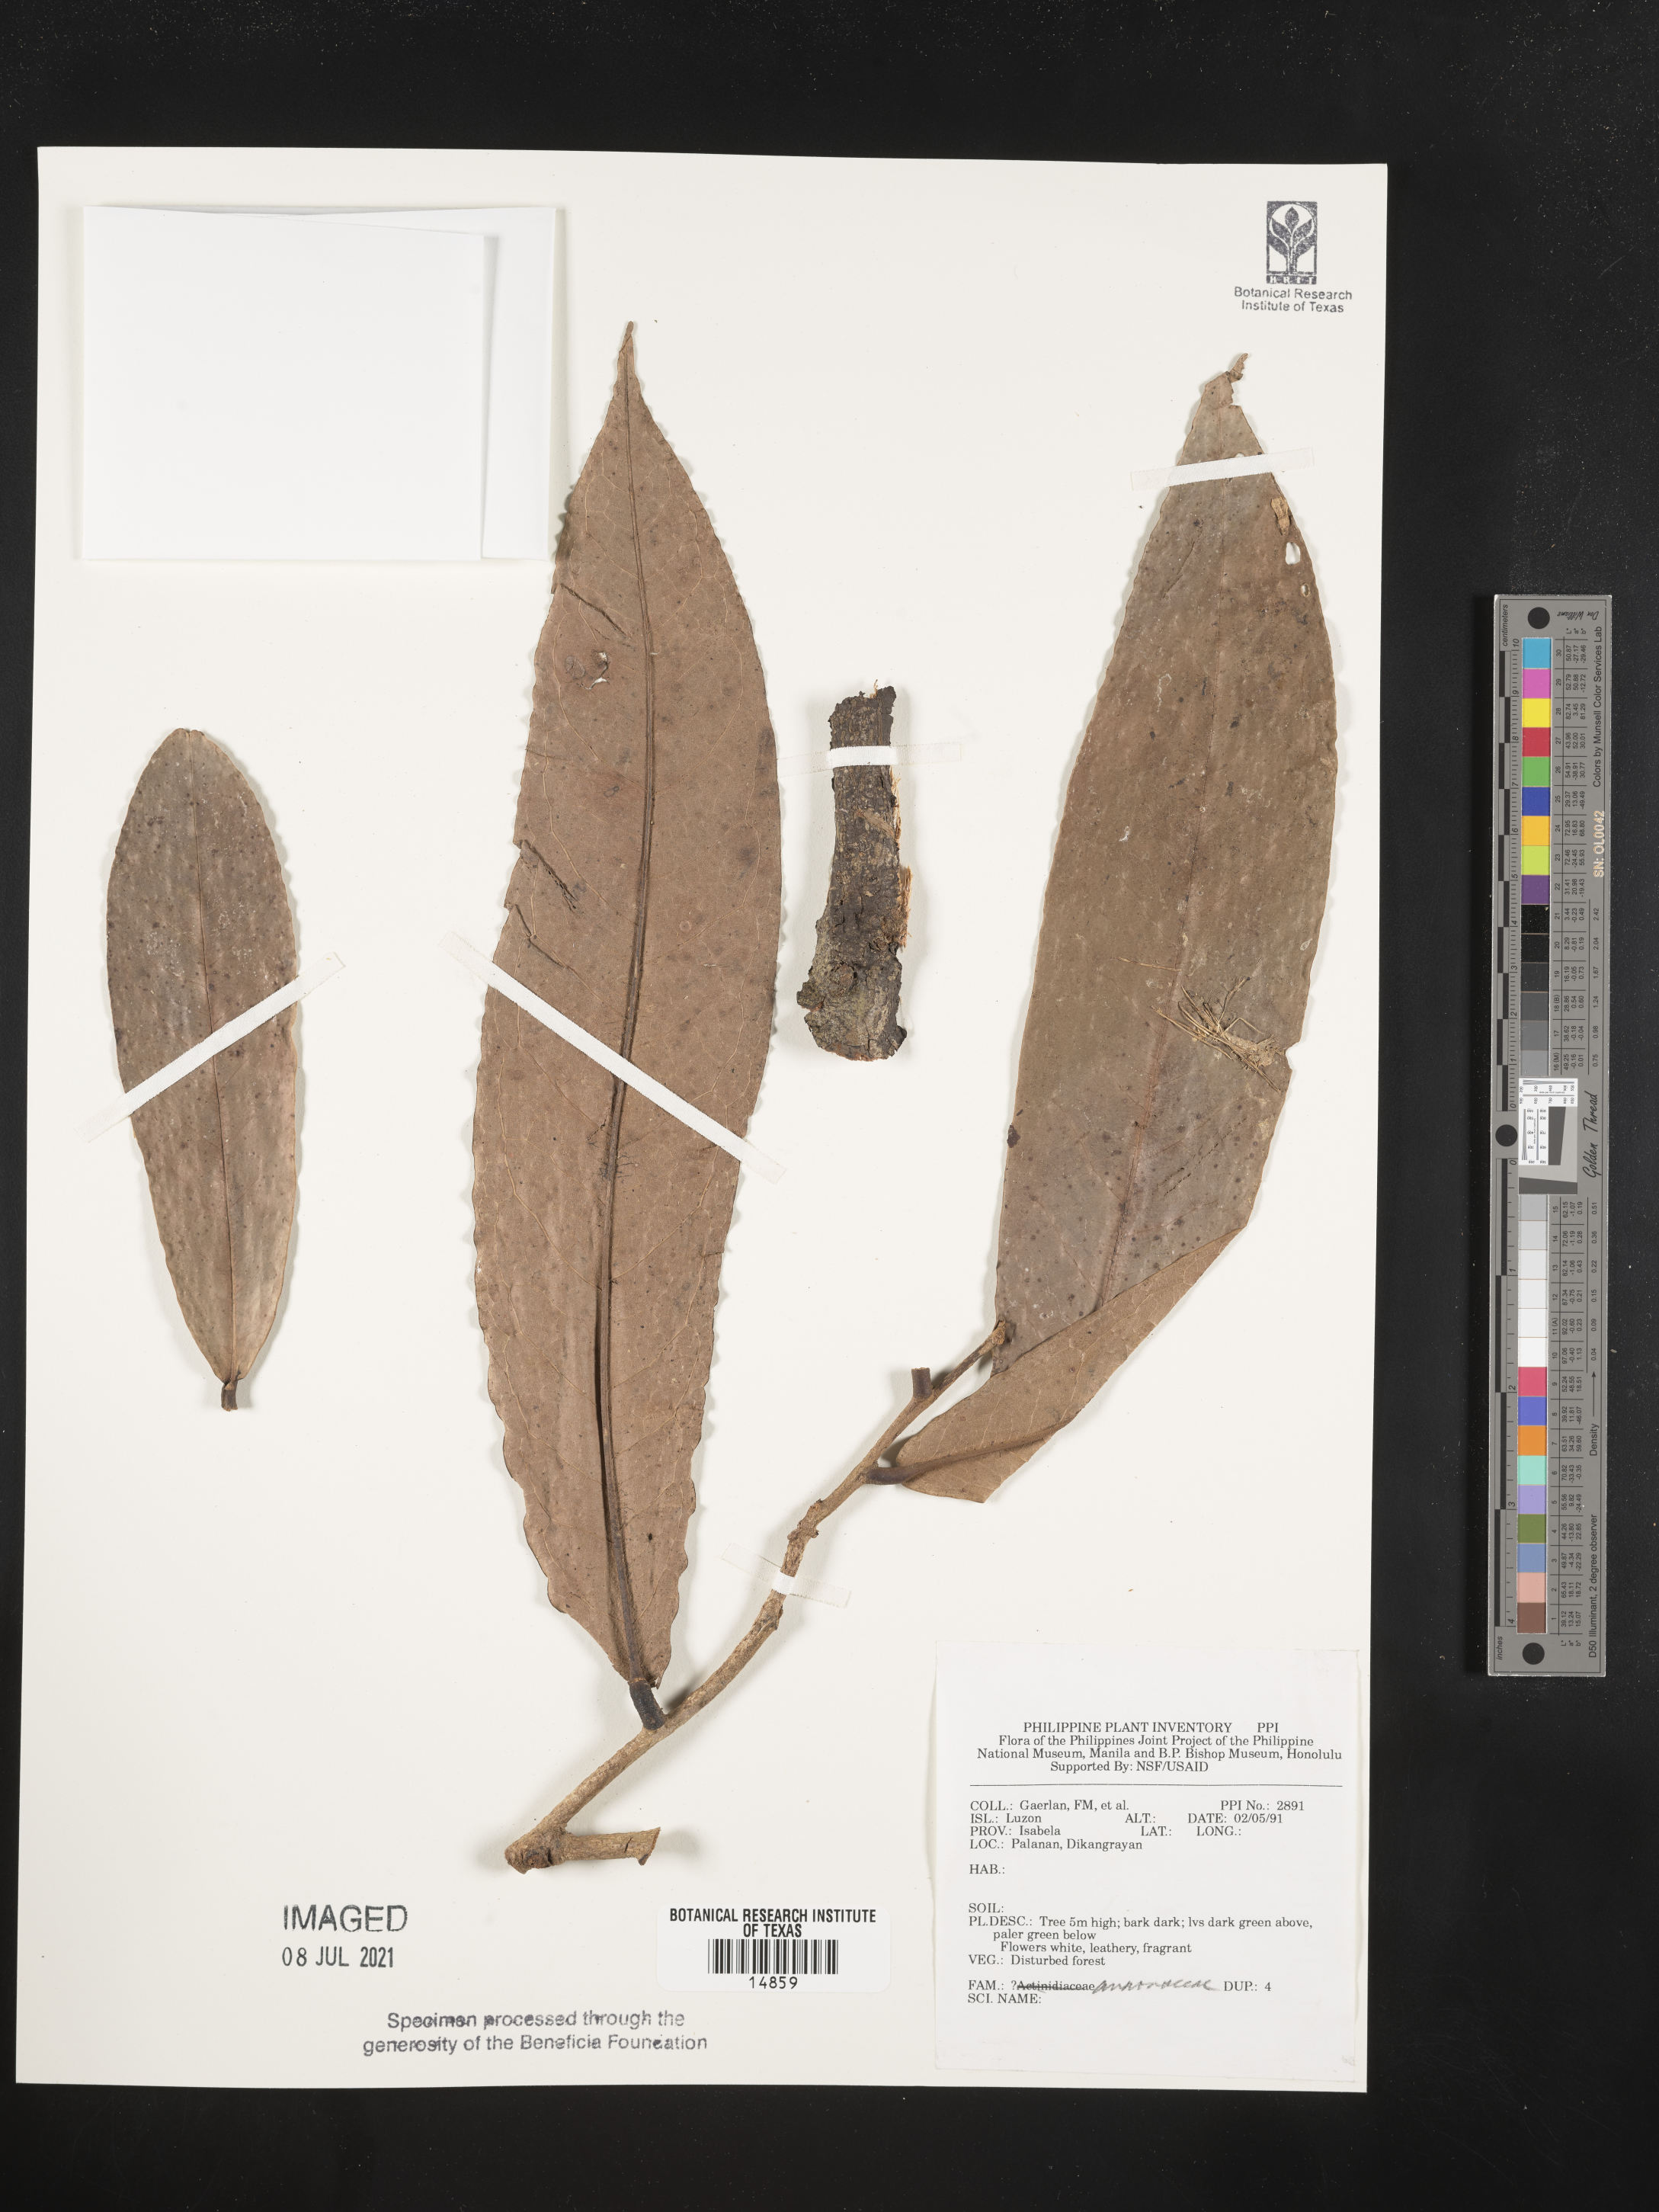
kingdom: Plantae
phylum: Tracheophyta
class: Magnoliopsida
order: Magnoliales
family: Annonaceae
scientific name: Annonaceae
